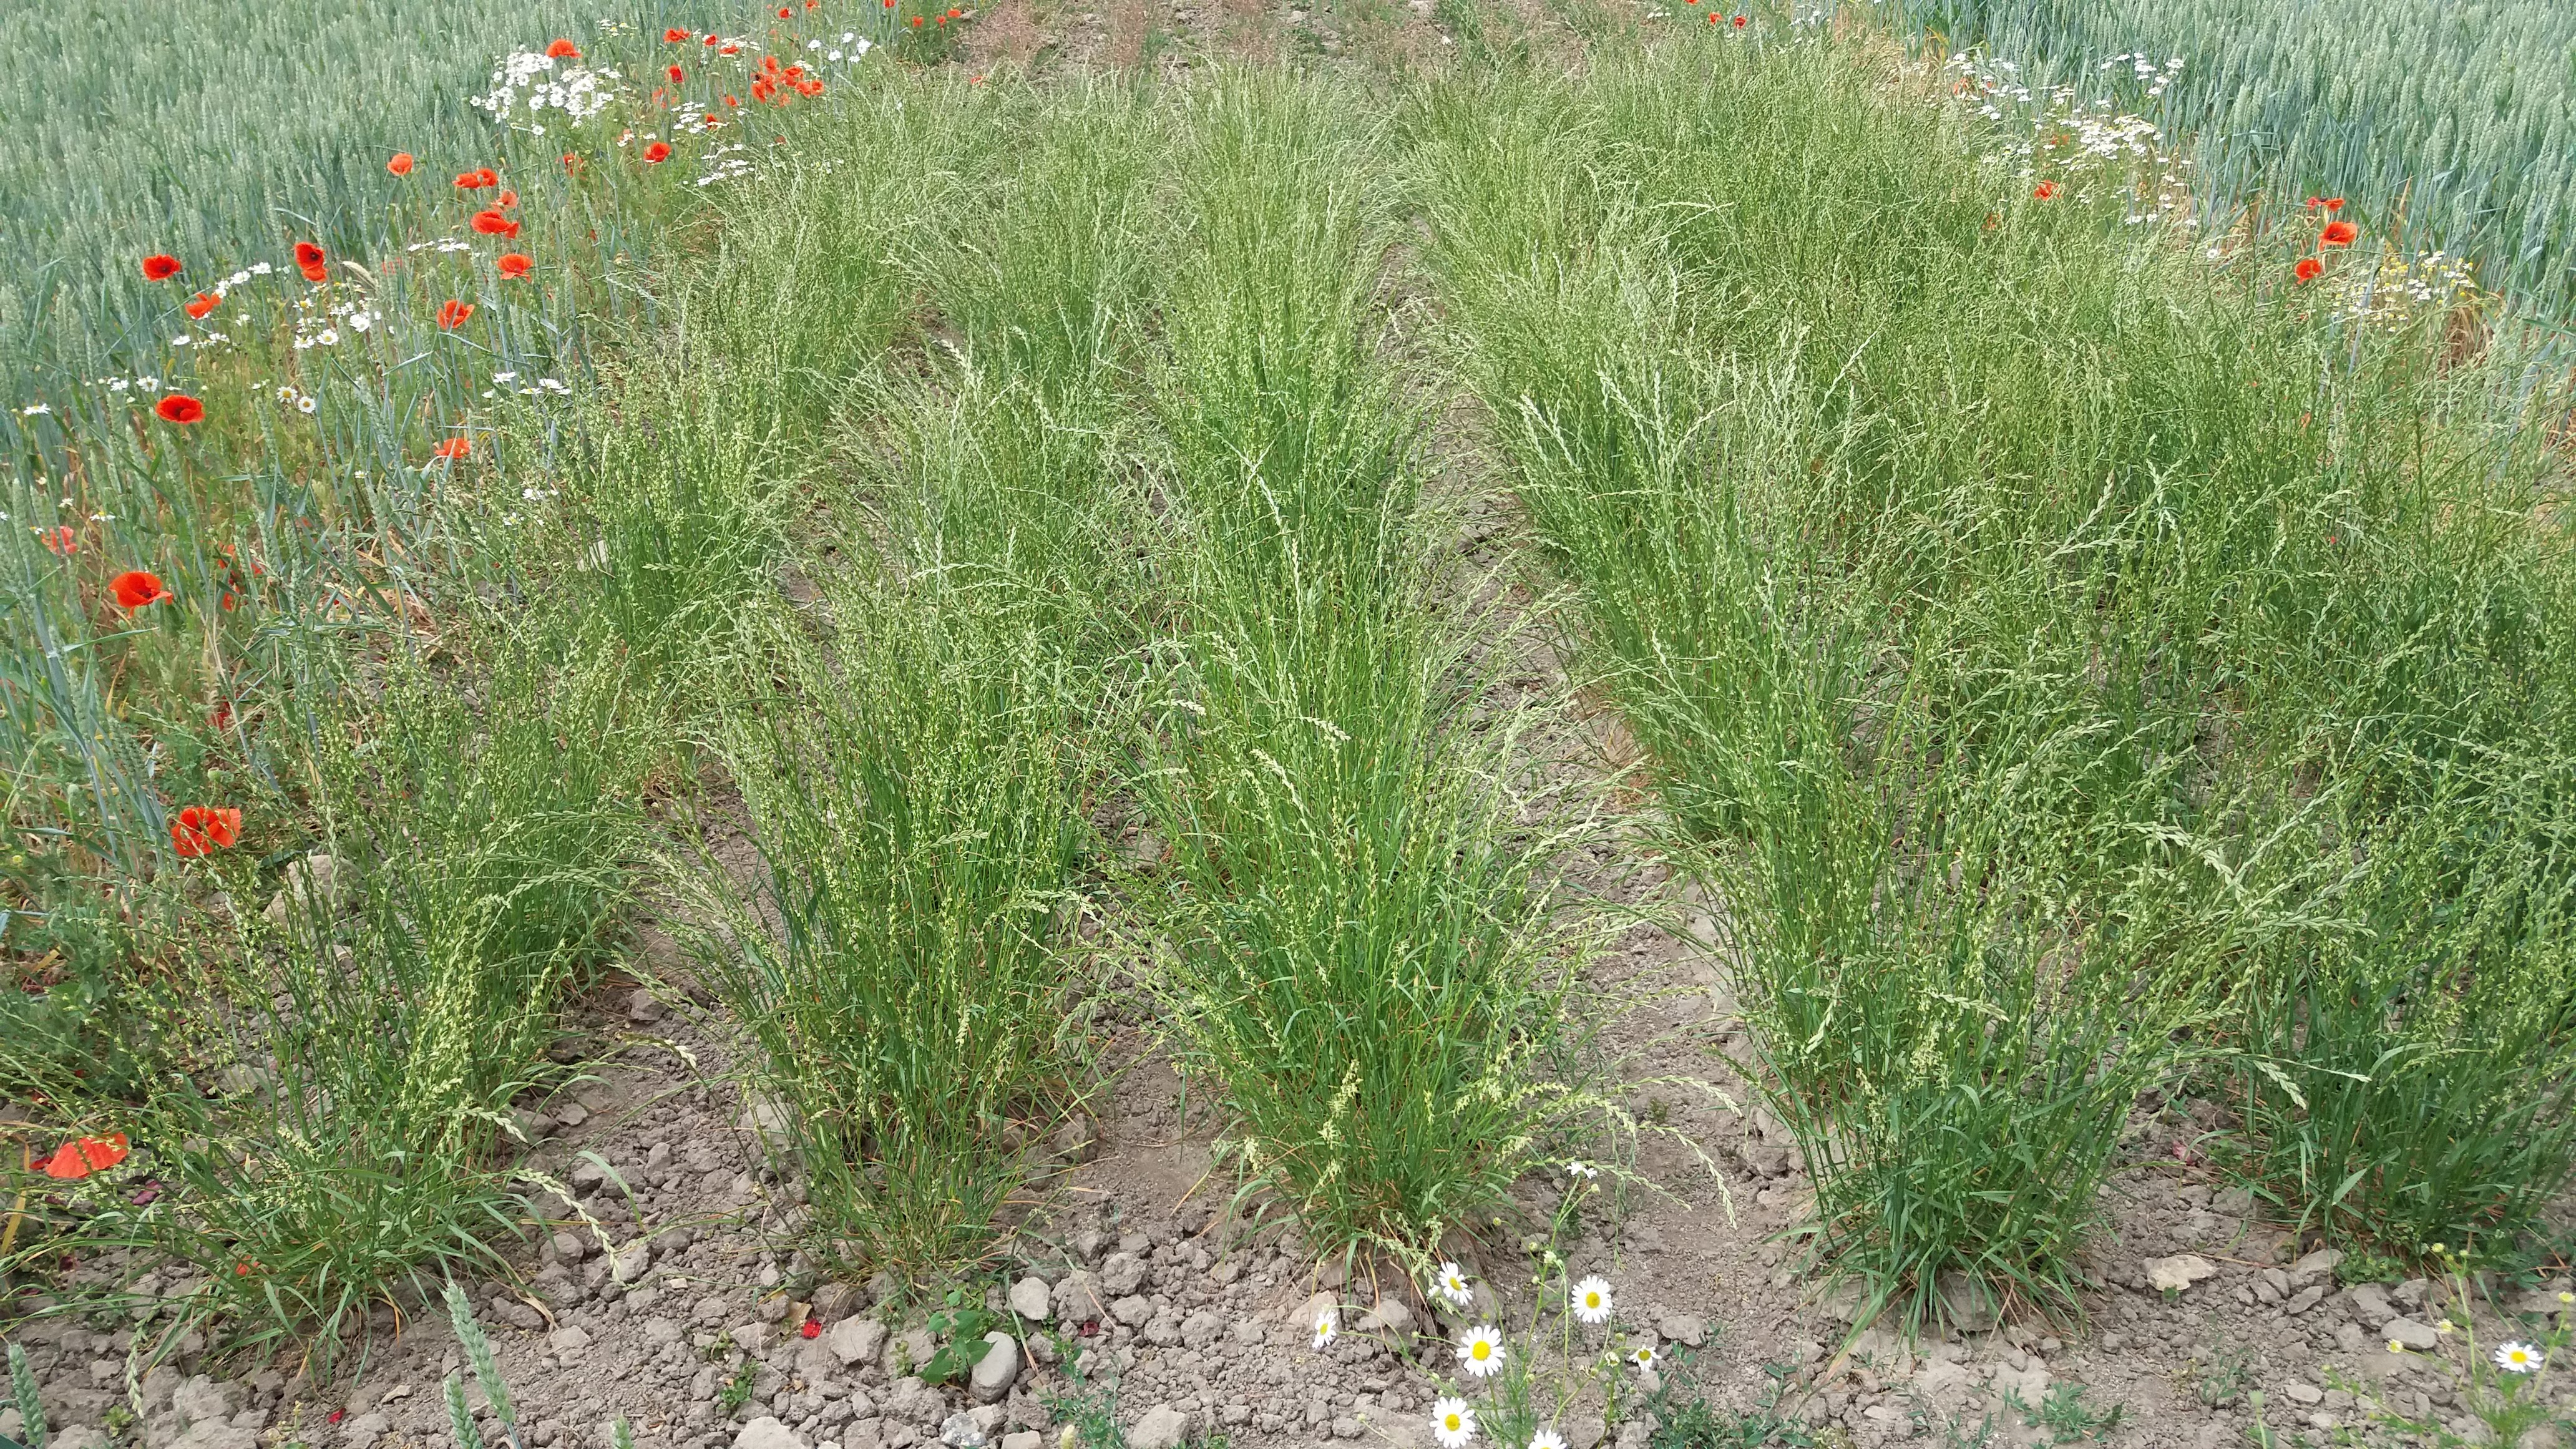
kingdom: Plantae
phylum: Tracheophyta
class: Liliopsida
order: Poales
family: Poaceae
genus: Lolium
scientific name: Lolium perenne
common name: Perennial ryegrass
